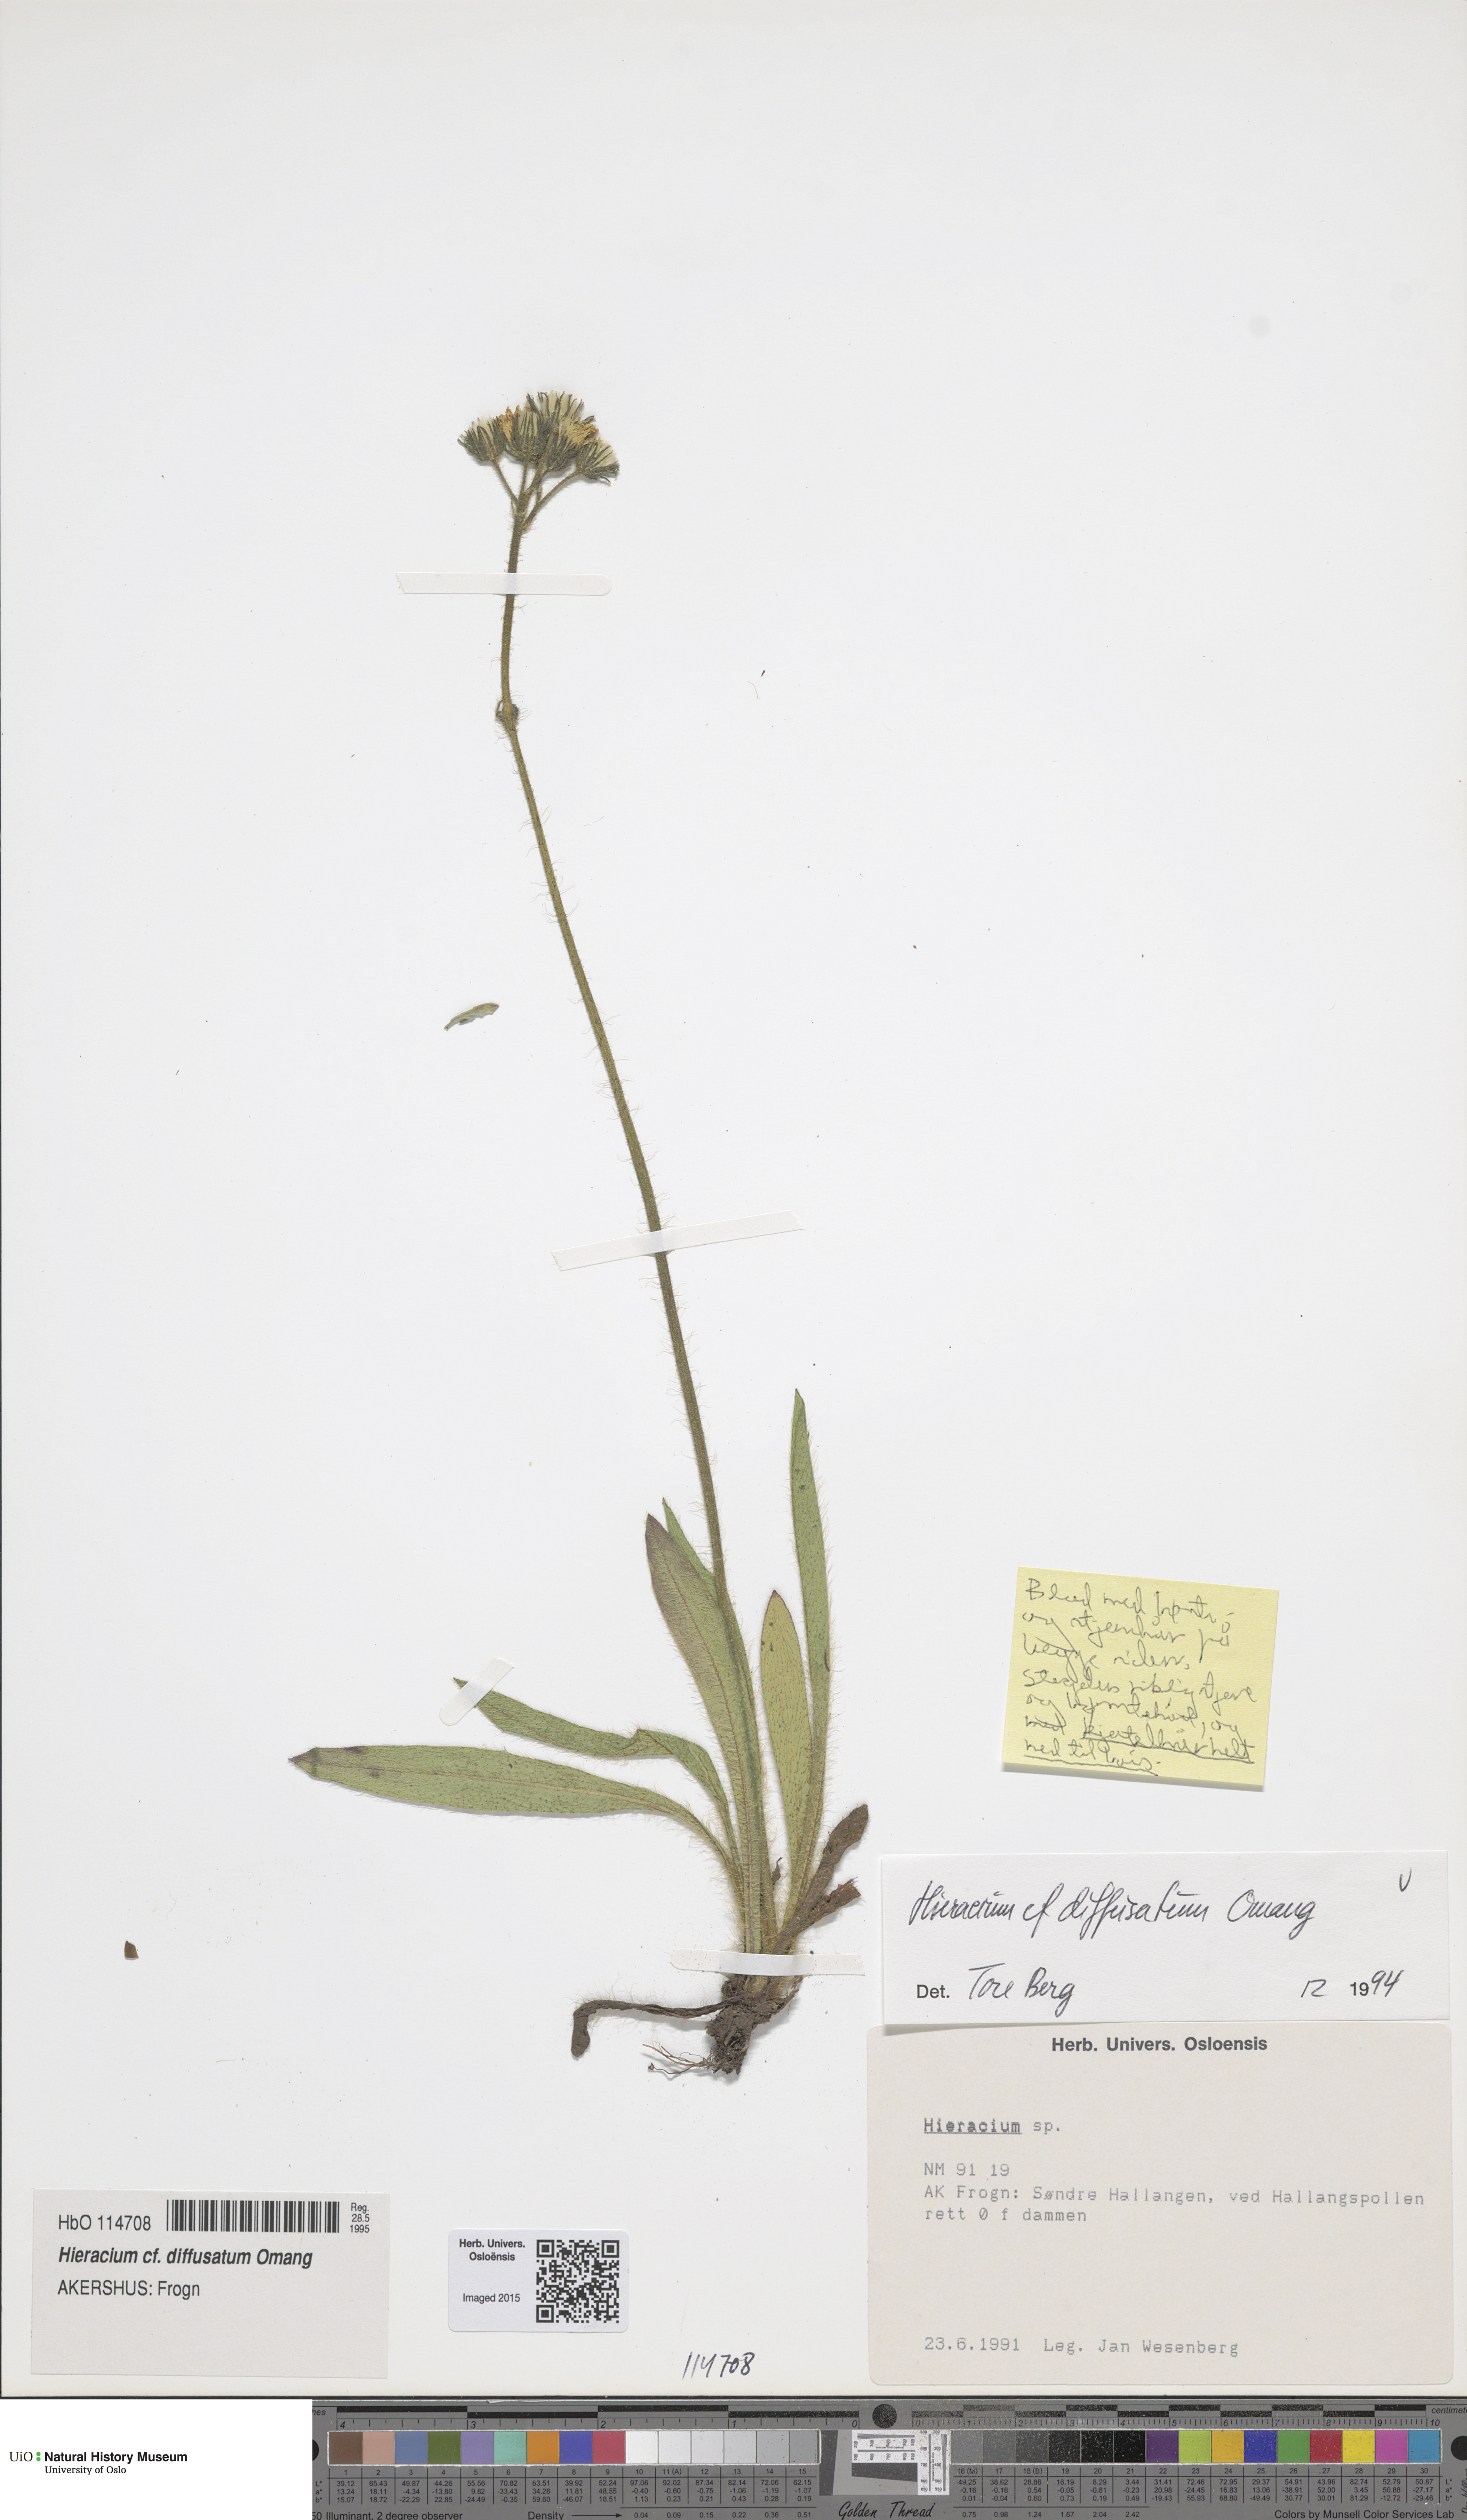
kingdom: Plantae
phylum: Tracheophyta
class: Magnoliopsida
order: Asterales
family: Asteraceae
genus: Pilosella
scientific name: Pilosella dubia
